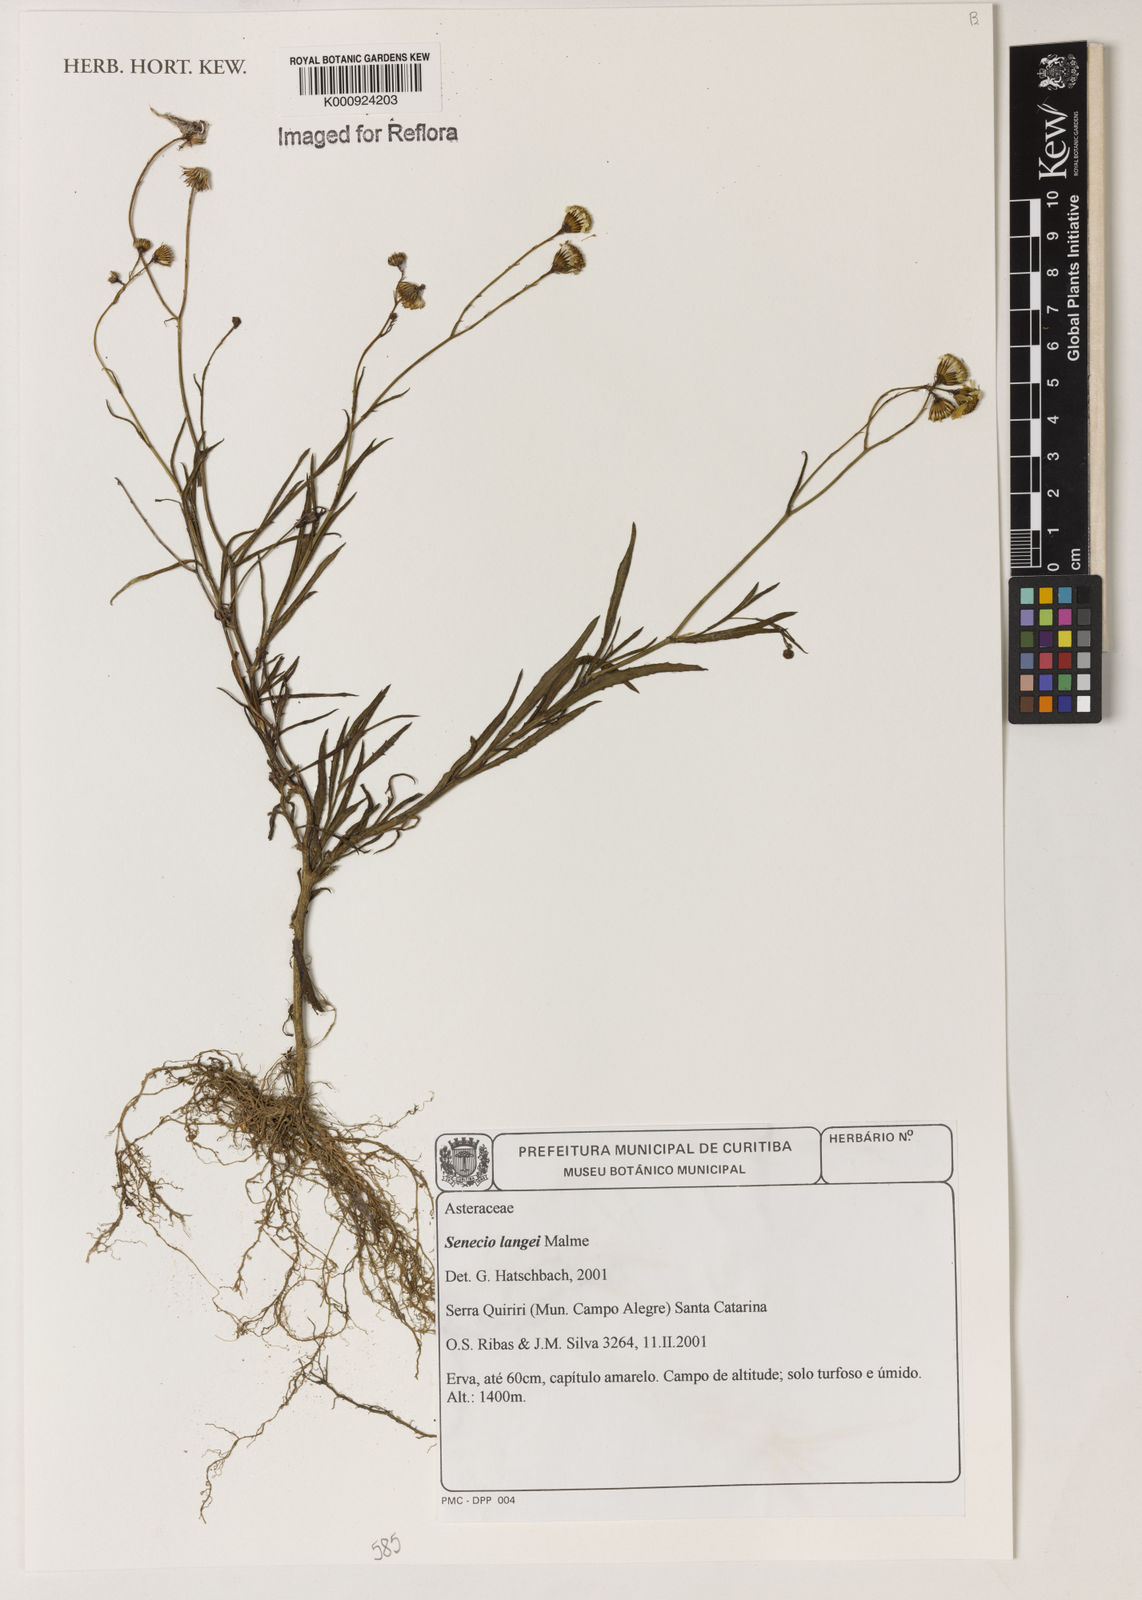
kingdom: Plantae
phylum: Tracheophyta
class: Magnoliopsida
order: Asterales
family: Asteraceae
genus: Senecio
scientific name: Senecio langei
